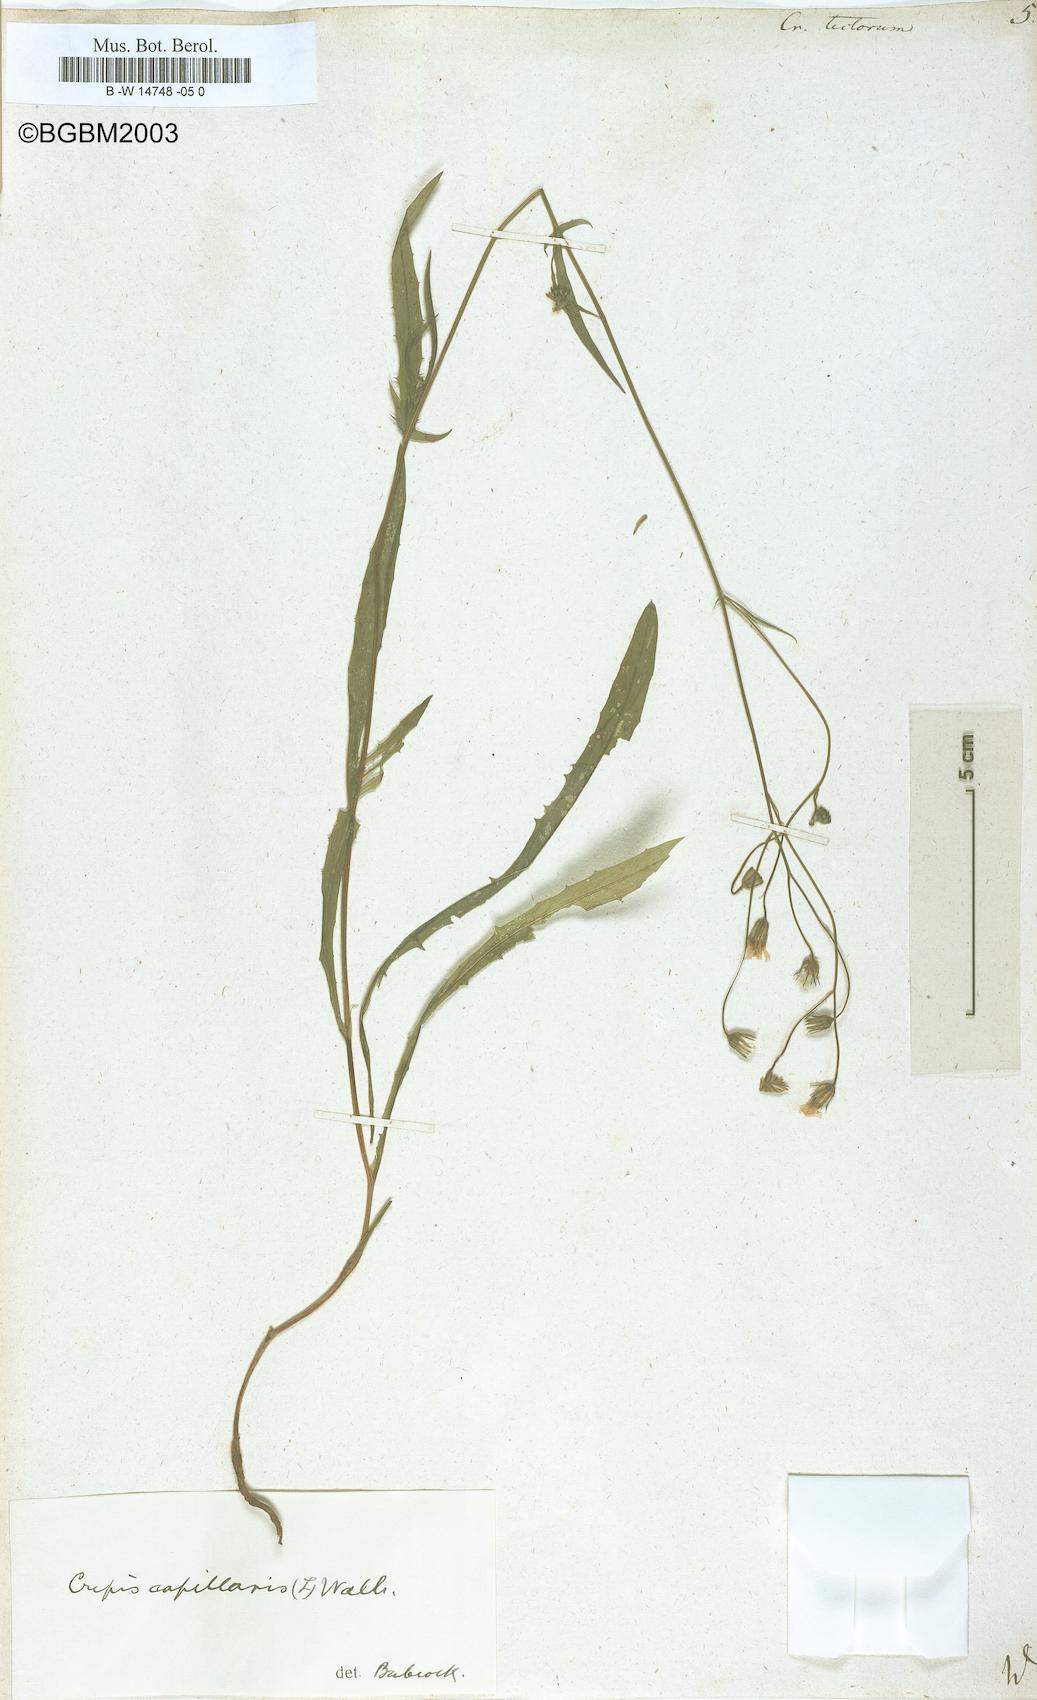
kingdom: Plantae
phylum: Tracheophyta
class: Magnoliopsida
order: Asterales
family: Asteraceae
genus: Crepis
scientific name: Crepis tectorum
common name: Narrow-leaved hawk's-beard
